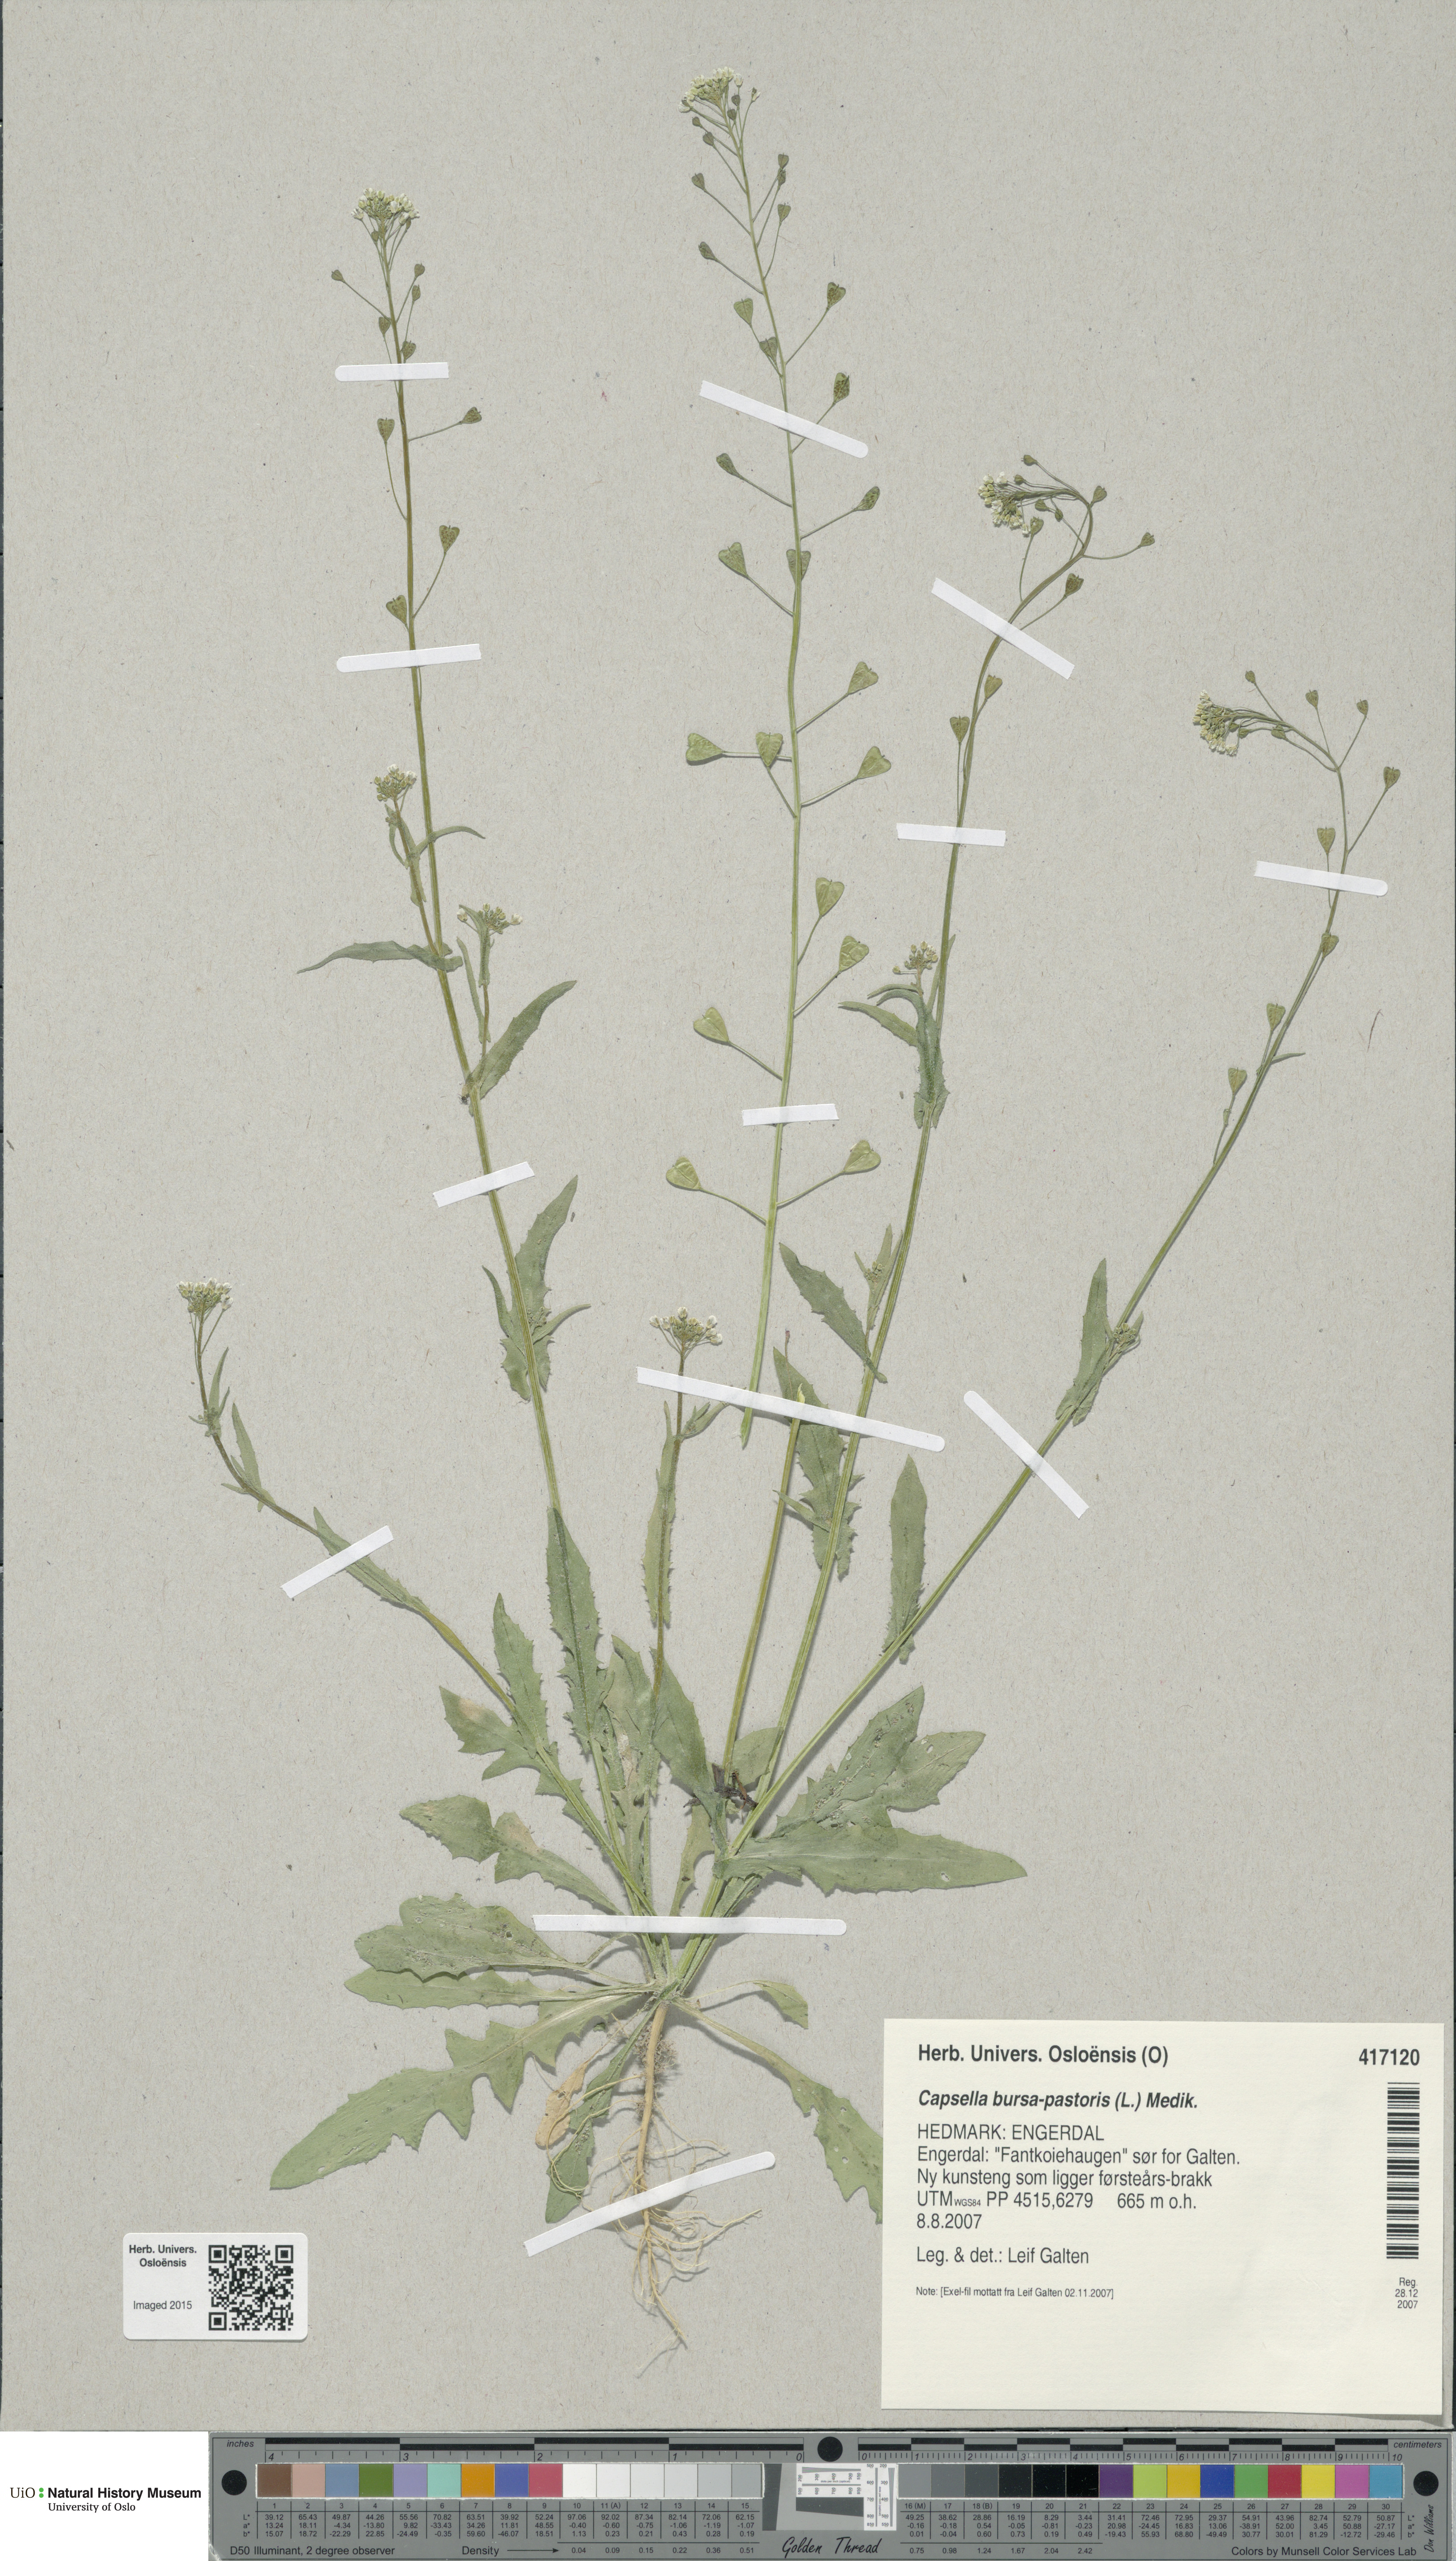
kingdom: Plantae
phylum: Tracheophyta
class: Magnoliopsida
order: Brassicales
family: Brassicaceae
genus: Capsella
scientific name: Capsella bursa-pastoris
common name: Shepherd's purse
